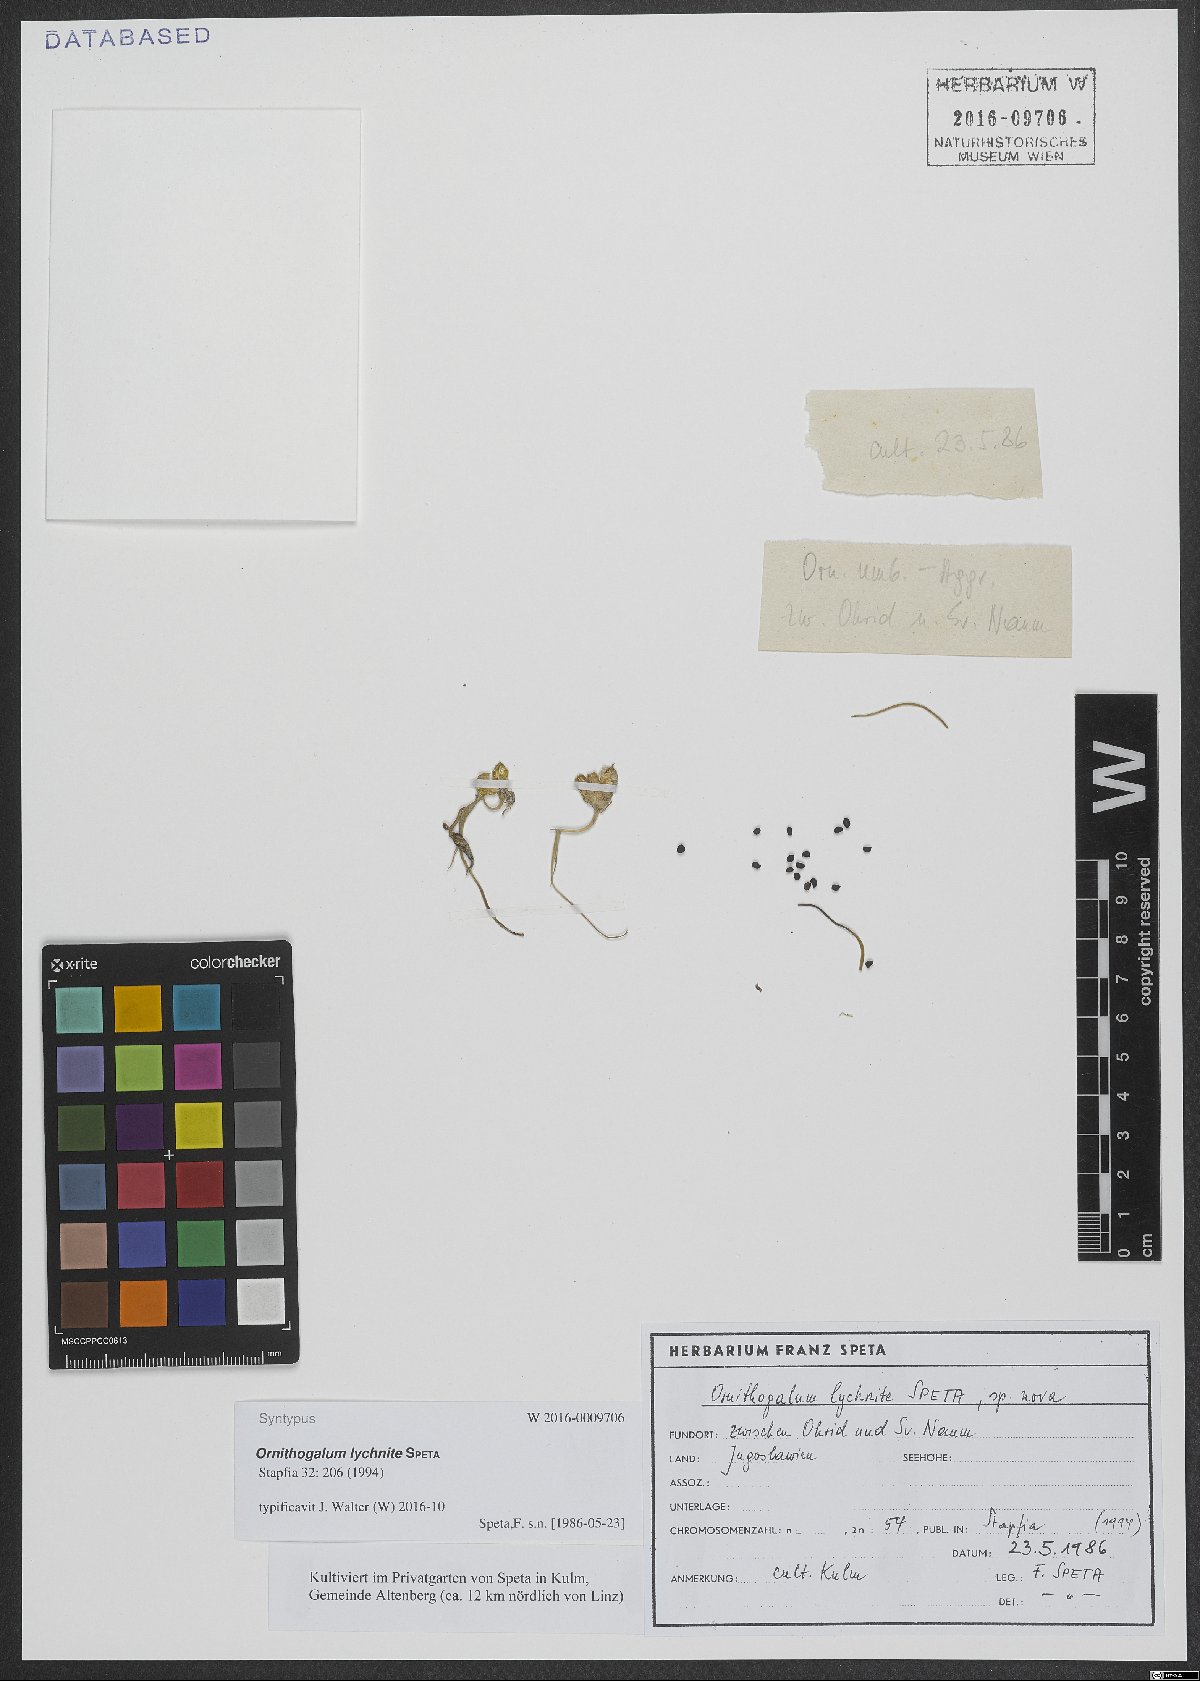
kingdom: Plantae
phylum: Tracheophyta
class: Liliopsida
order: Asparagales
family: Asparagaceae
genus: Ornithogalum
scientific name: Ornithogalum lychnite
